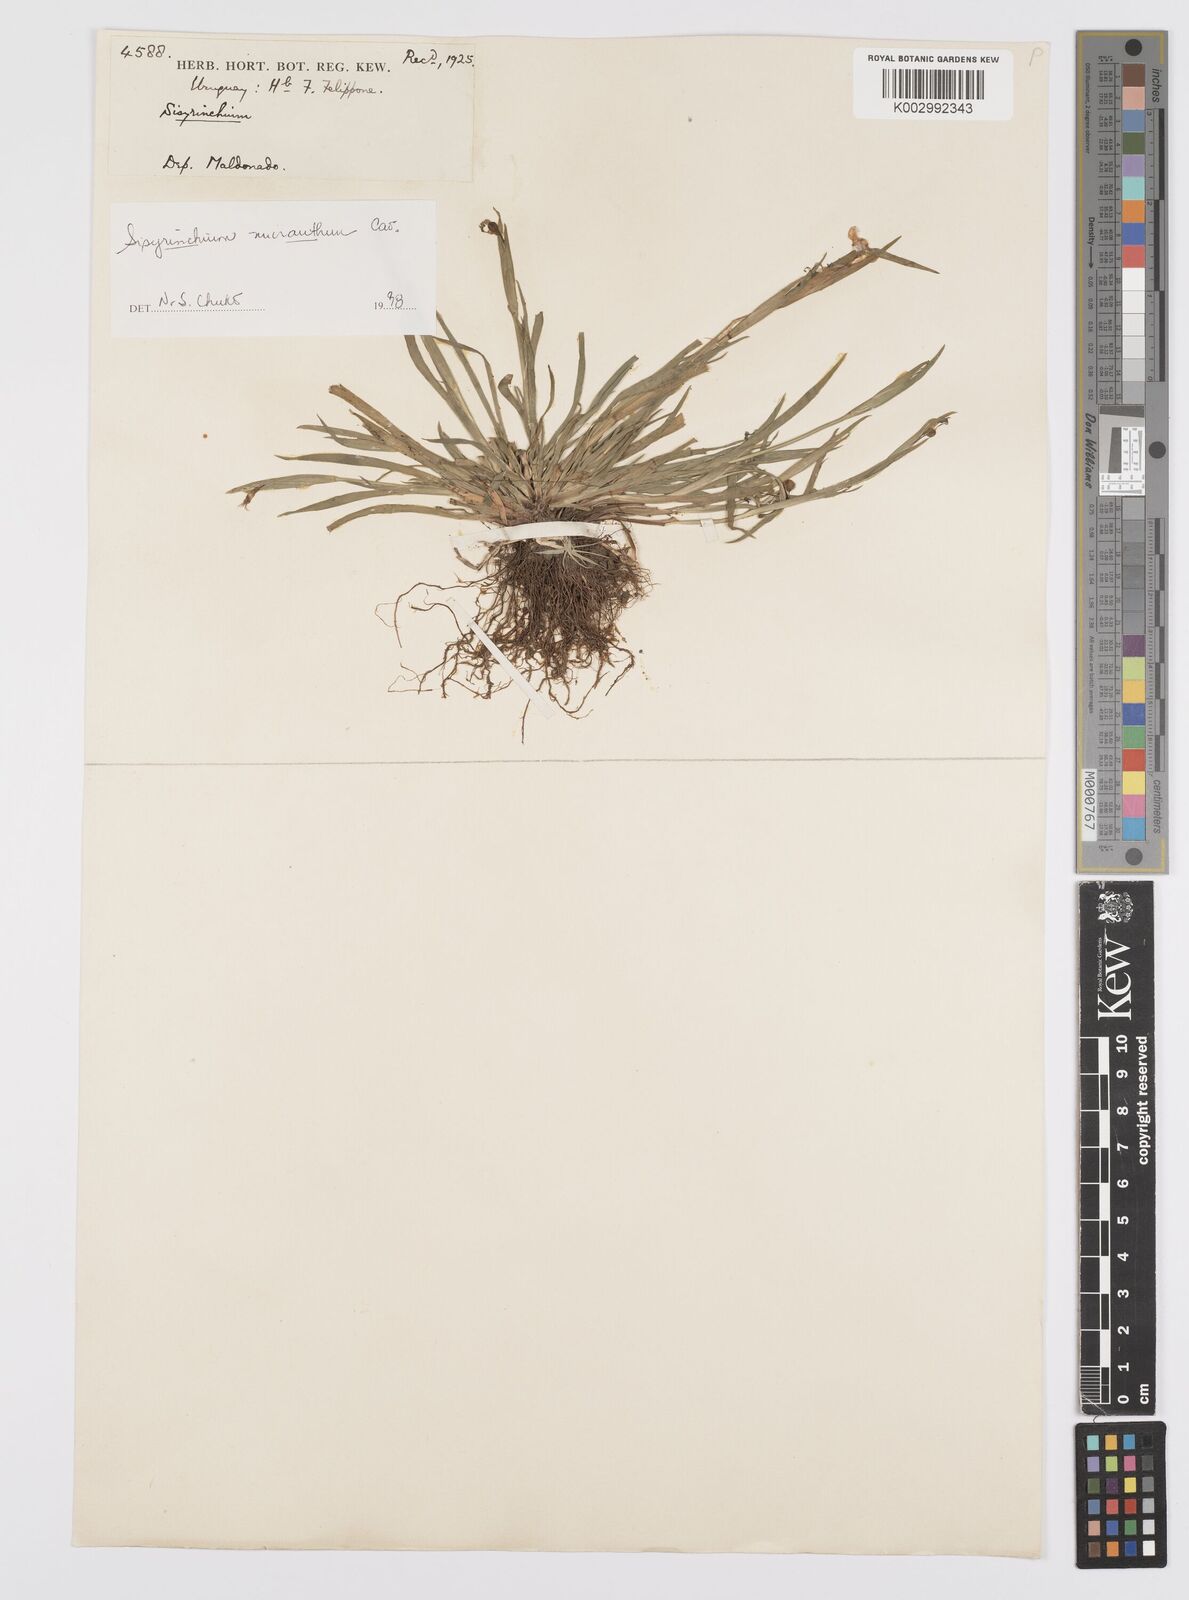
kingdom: Plantae
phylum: Tracheophyta
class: Liliopsida
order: Asparagales
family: Iridaceae
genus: Sisyrinchium
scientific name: Sisyrinchium micranthum
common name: Bermuda pigroot
